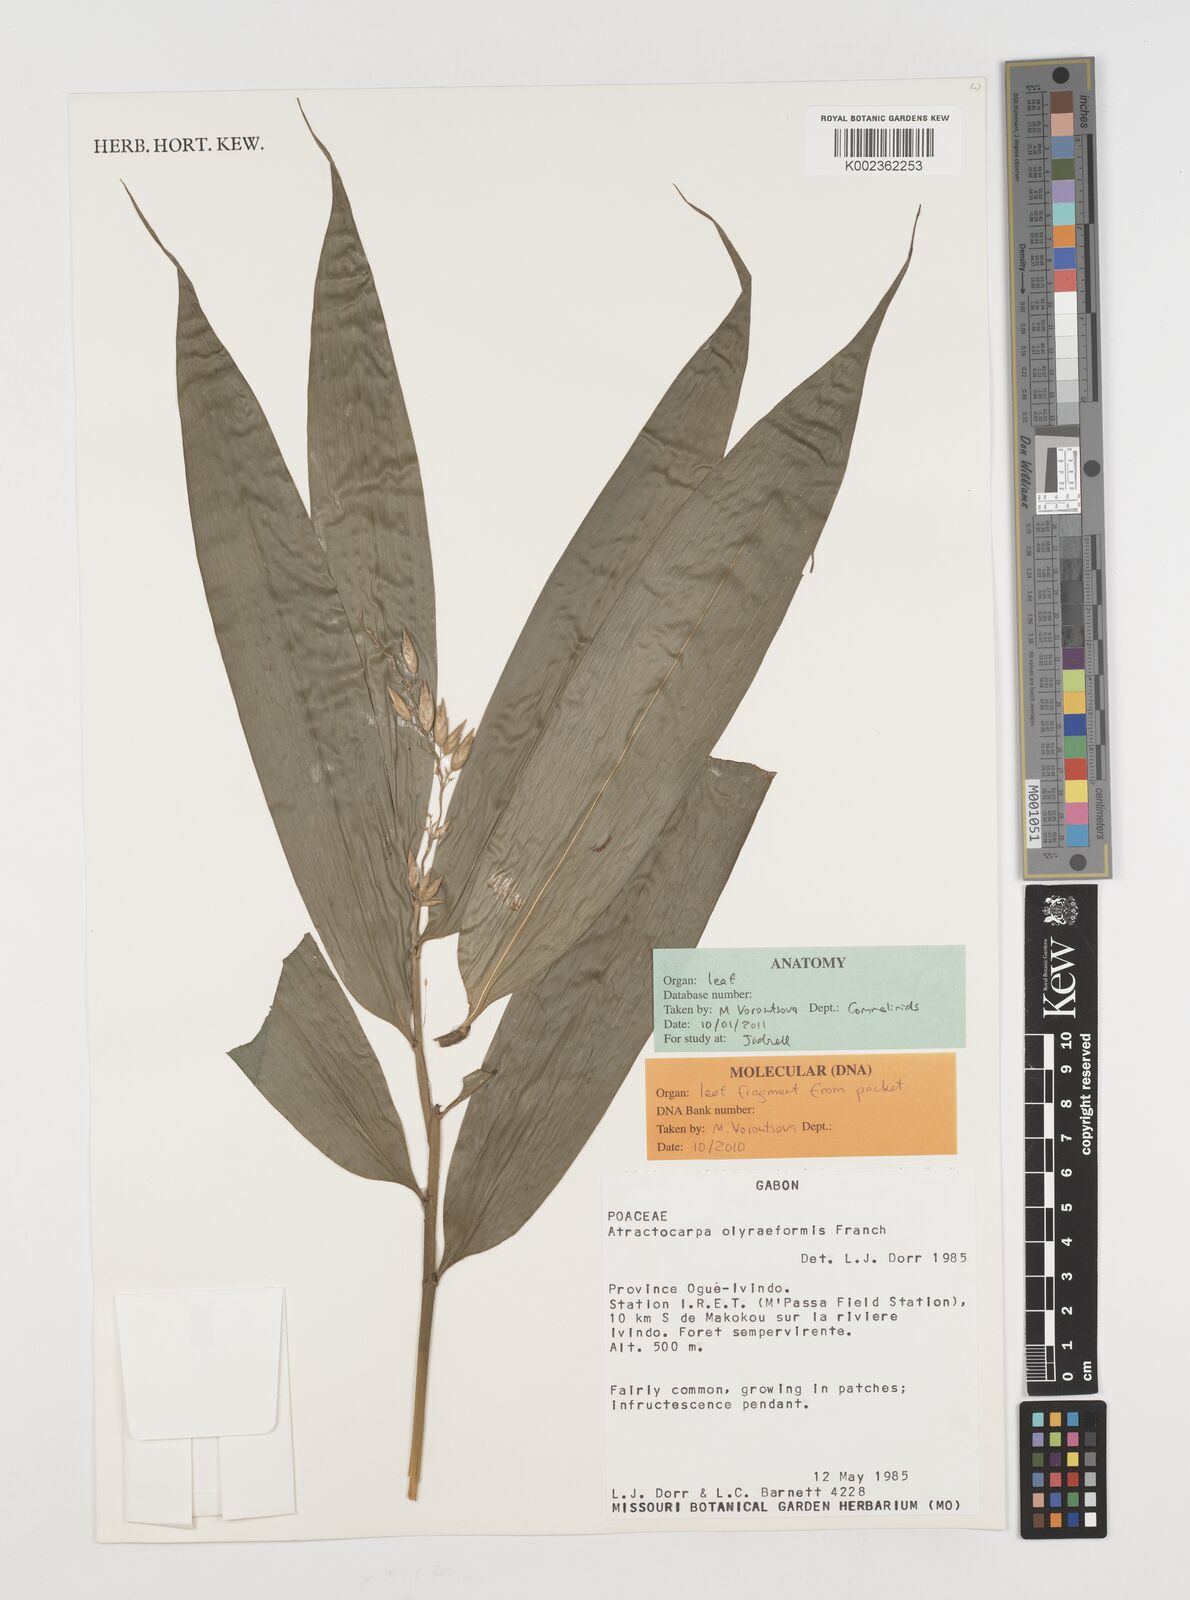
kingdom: Plantae
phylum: Tracheophyta
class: Liliopsida
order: Poales
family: Poaceae
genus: Puelia
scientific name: Puelia olyriformis
